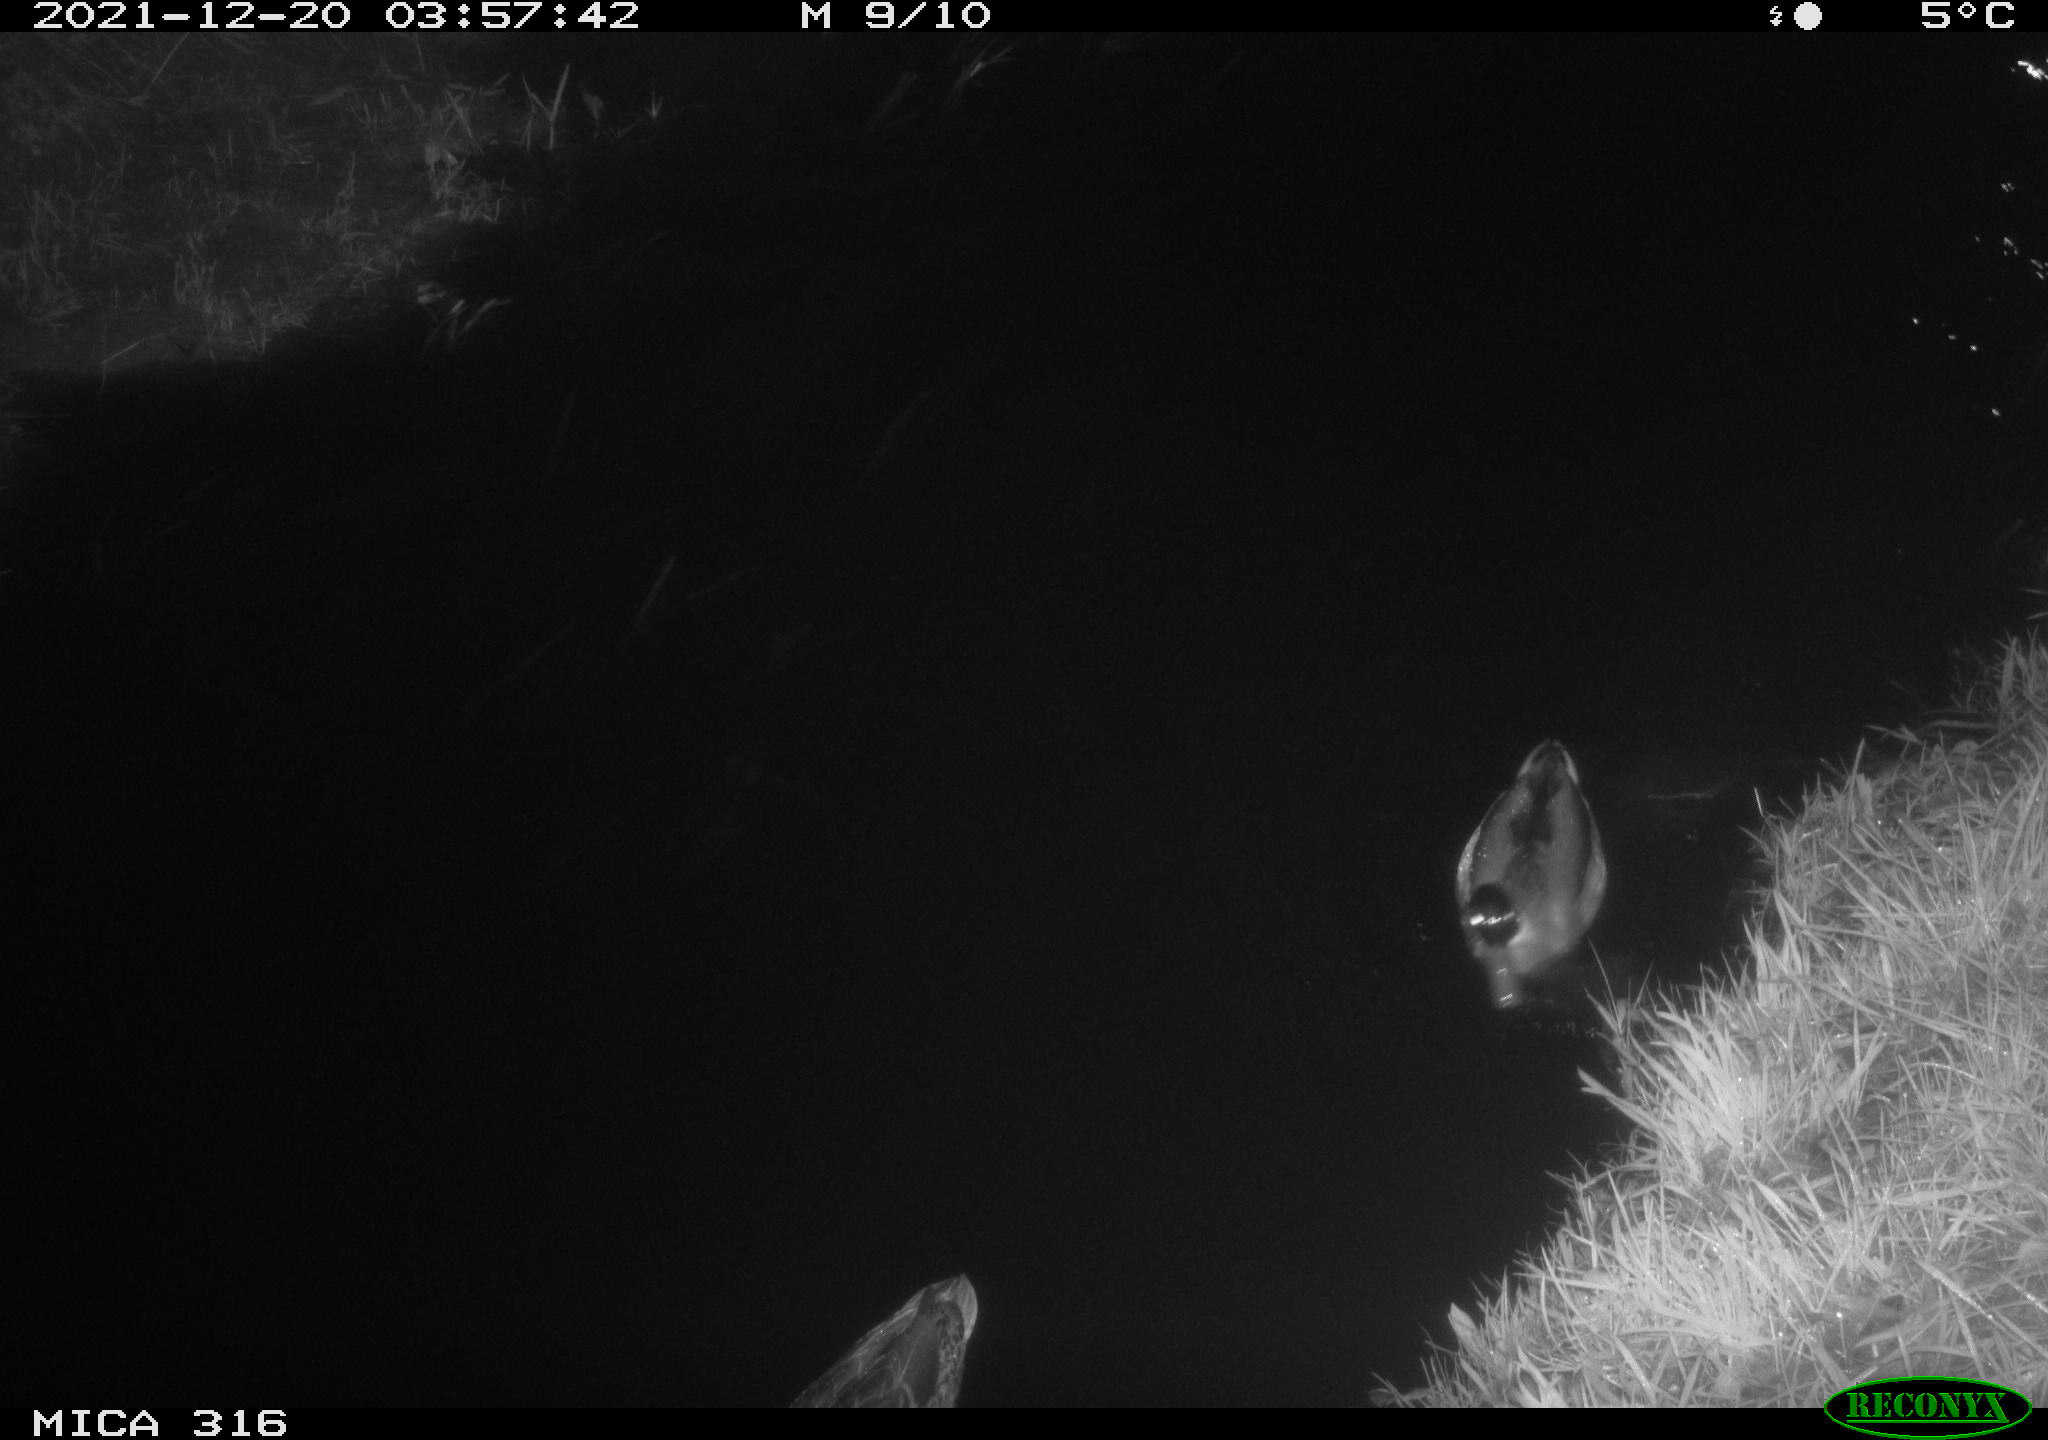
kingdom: Animalia
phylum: Chordata
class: Aves
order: Anseriformes
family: Anatidae
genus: Anas
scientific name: Anas
